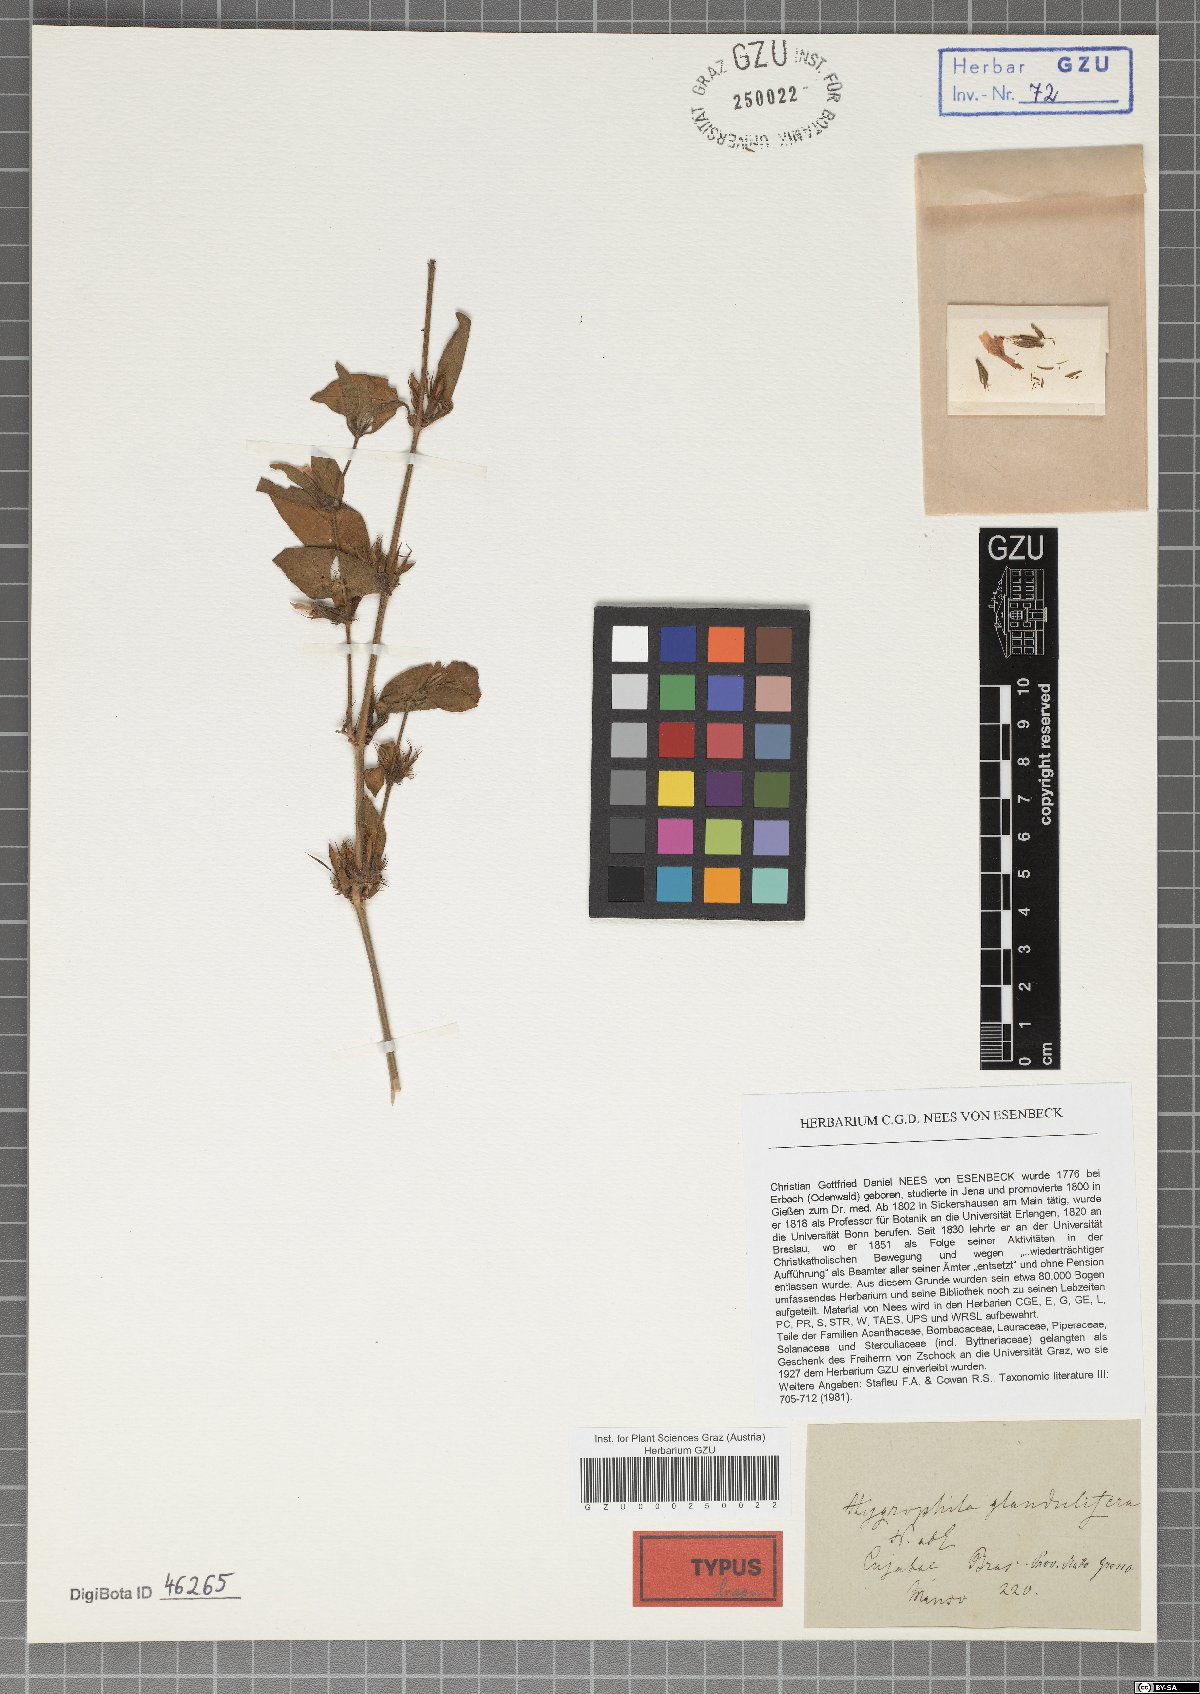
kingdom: Plantae
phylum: Tracheophyta
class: Magnoliopsida
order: Lamiales
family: Acanthaceae
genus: Hygrophila
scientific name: Hygrophila glandulifera
